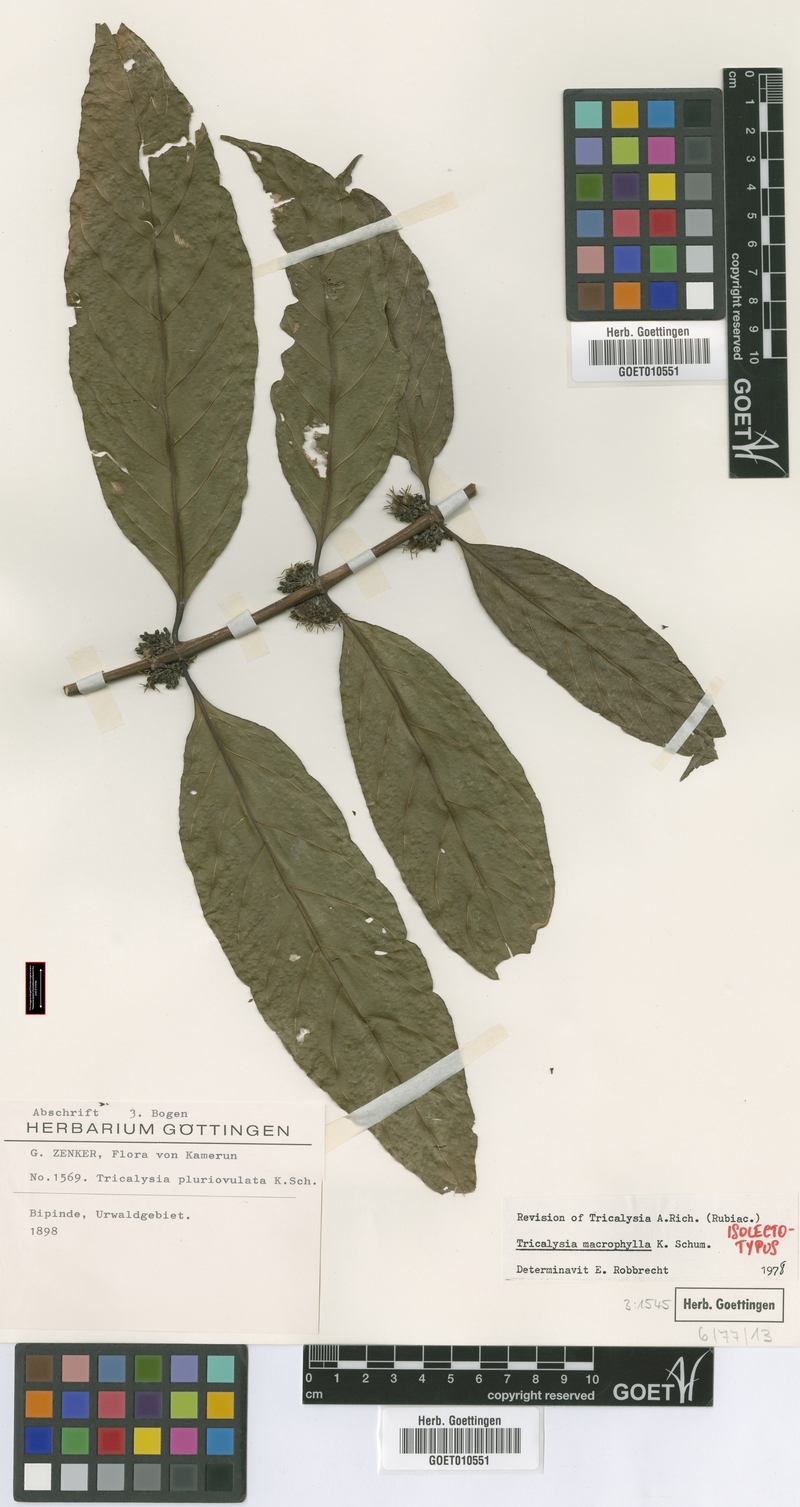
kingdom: Plantae
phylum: Tracheophyta
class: Magnoliopsida
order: Gentianales
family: Rubiaceae
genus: Empogona
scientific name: Empogona macrophylla
